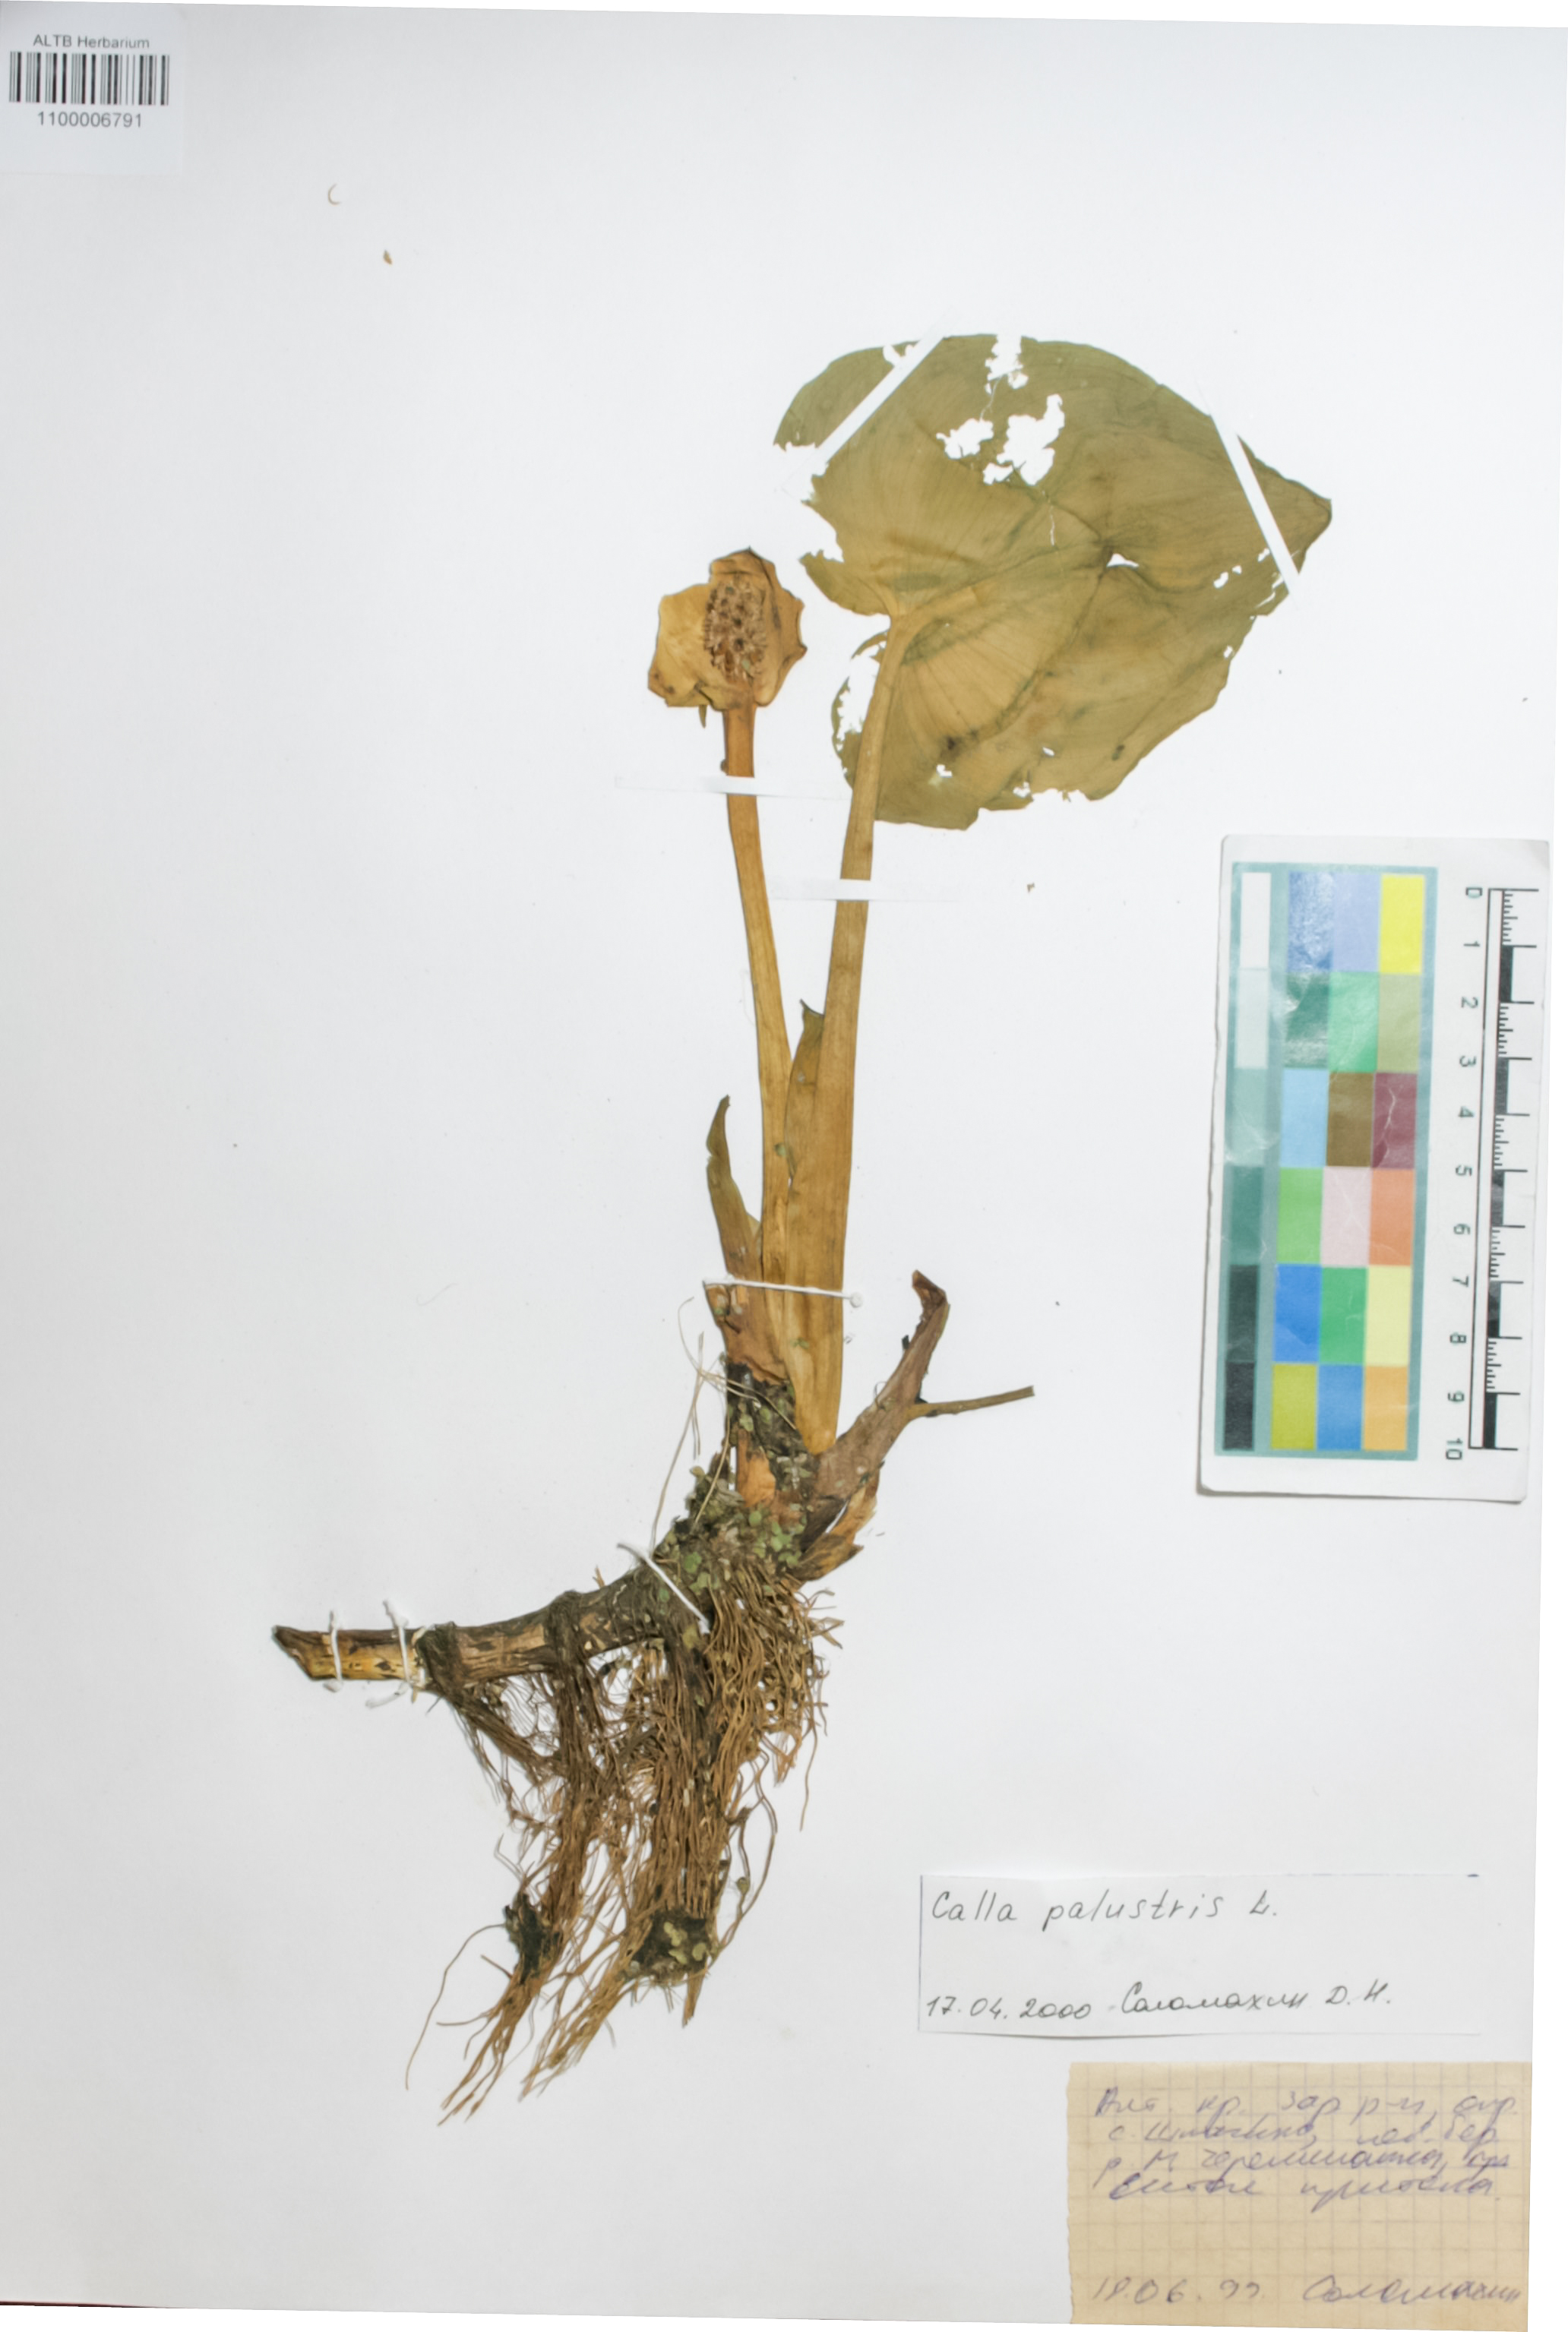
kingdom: Plantae
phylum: Tracheophyta
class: Liliopsida
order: Alismatales
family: Araceae
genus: Calla
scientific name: Calla palustris
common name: Bog arum
